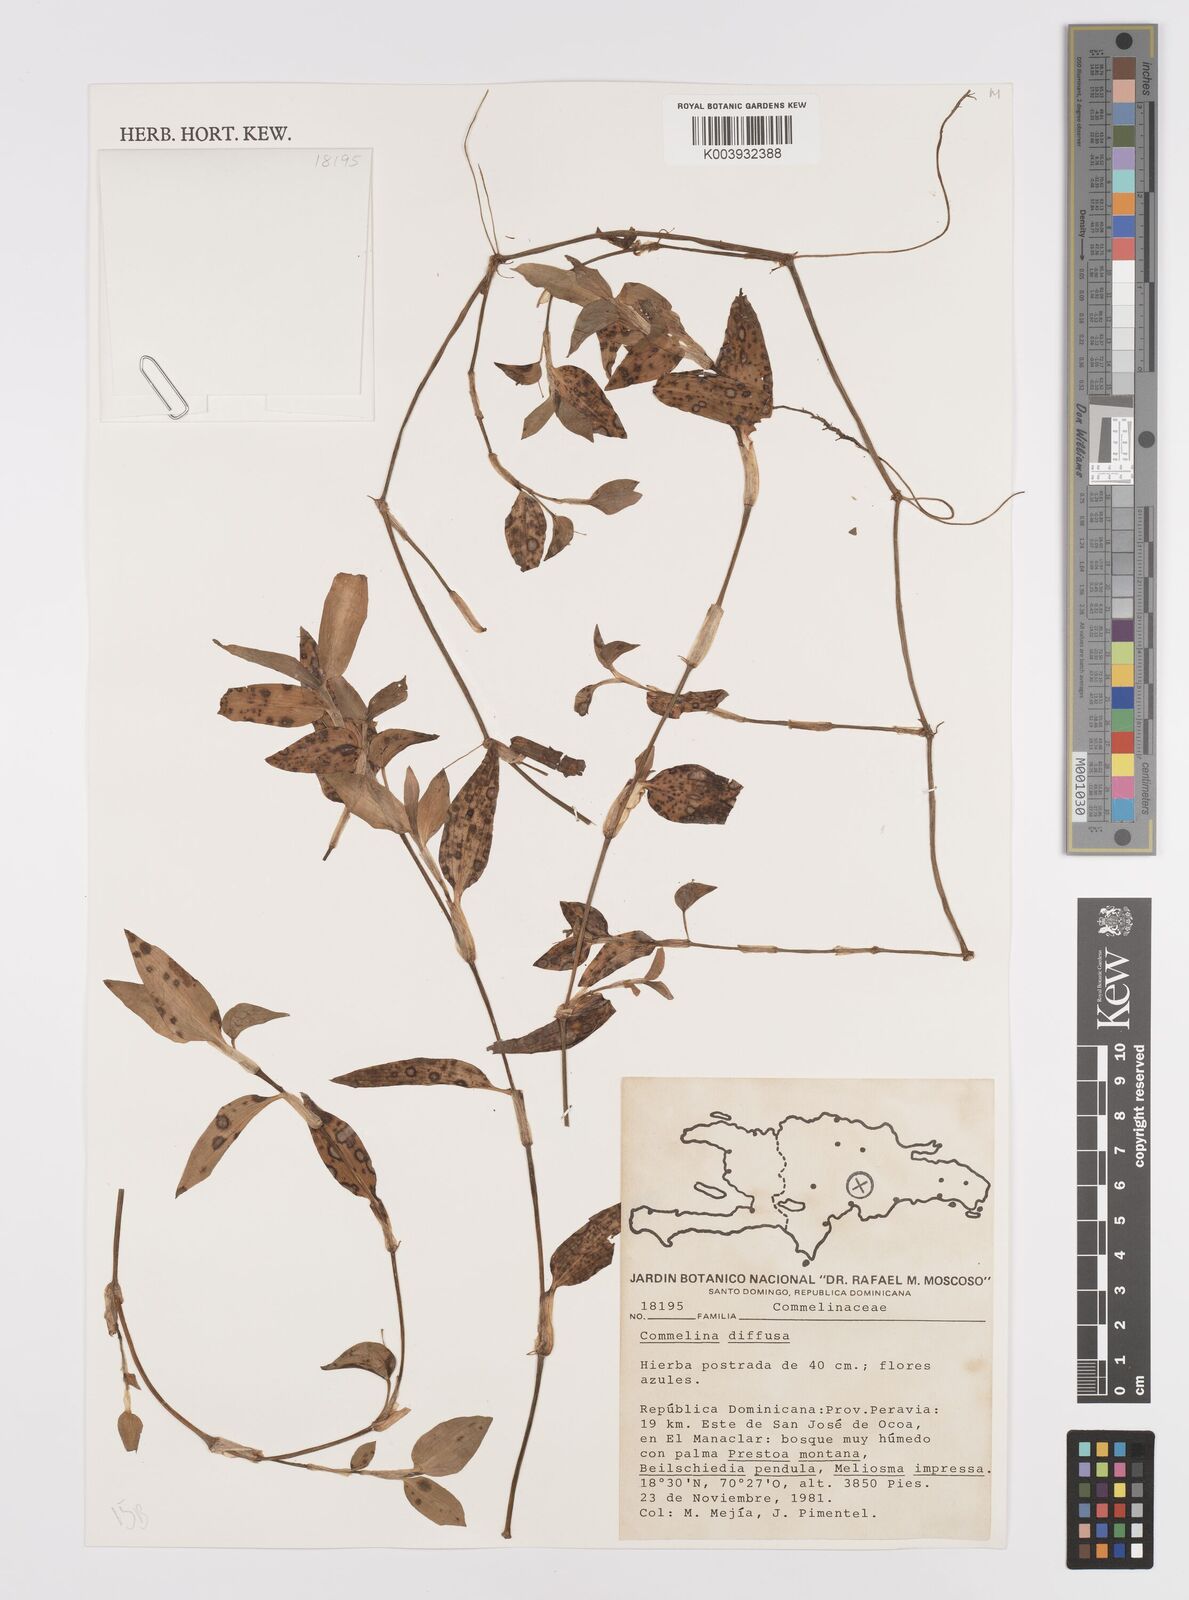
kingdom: Plantae
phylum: Tracheophyta
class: Liliopsida
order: Commelinales
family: Commelinaceae
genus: Commelina
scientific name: Commelina diffusa
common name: Climbing dayflower
